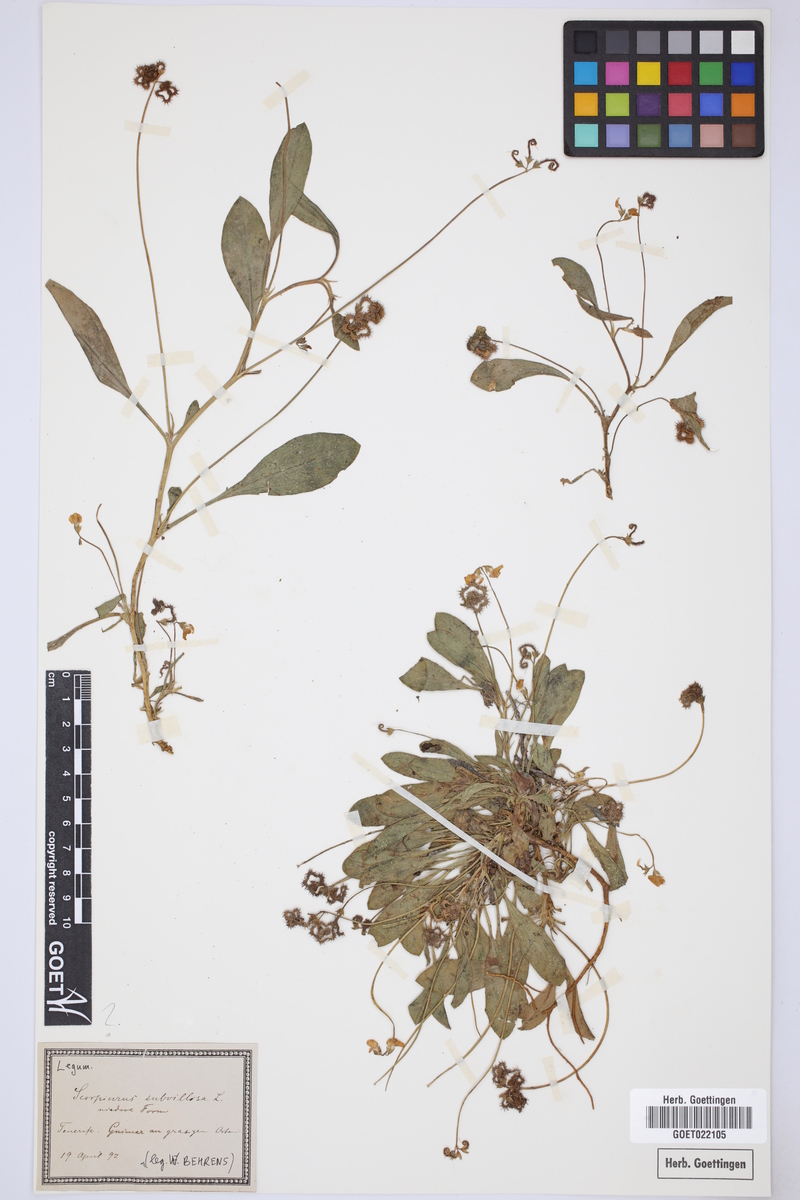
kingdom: Plantae
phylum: Tracheophyta
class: Magnoliopsida
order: Fabales
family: Fabaceae
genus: Scorpiurus
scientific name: Scorpiurus muricatus
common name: Caterpillar-plant
